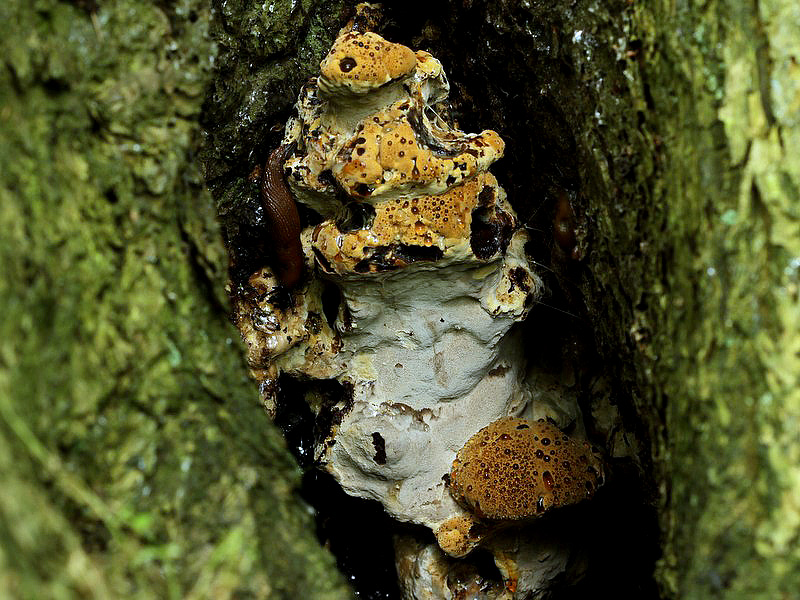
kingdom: Fungi
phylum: Basidiomycota
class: Agaricomycetes
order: Hymenochaetales
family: Hymenochaetaceae
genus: Pseudoinonotus
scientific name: Pseudoinonotus dryadeus
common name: ege-spejlporesvamp
